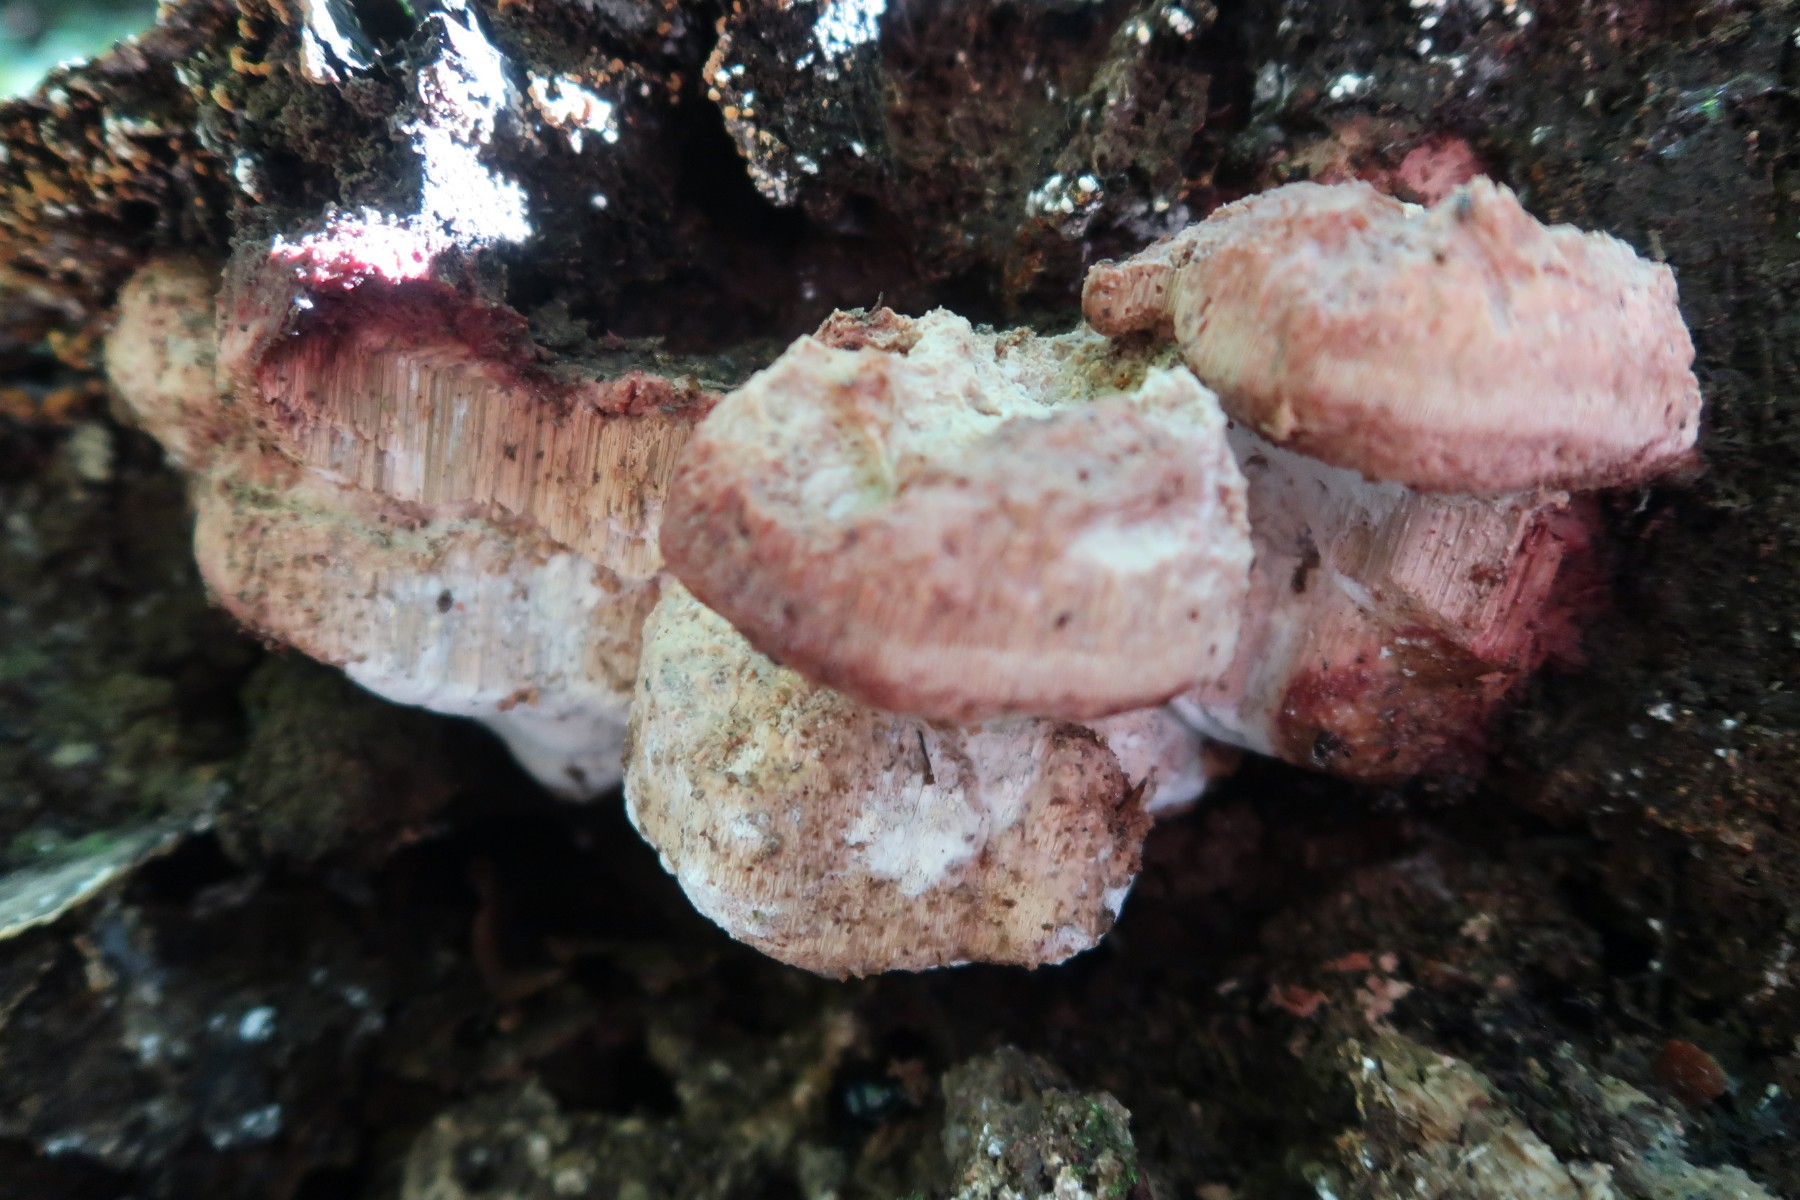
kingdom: Fungi
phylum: Basidiomycota
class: Agaricomycetes
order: Polyporales
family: Meruliaceae
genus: Pappia
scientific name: Pappia fissilis
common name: rosa fedtporesvamp
